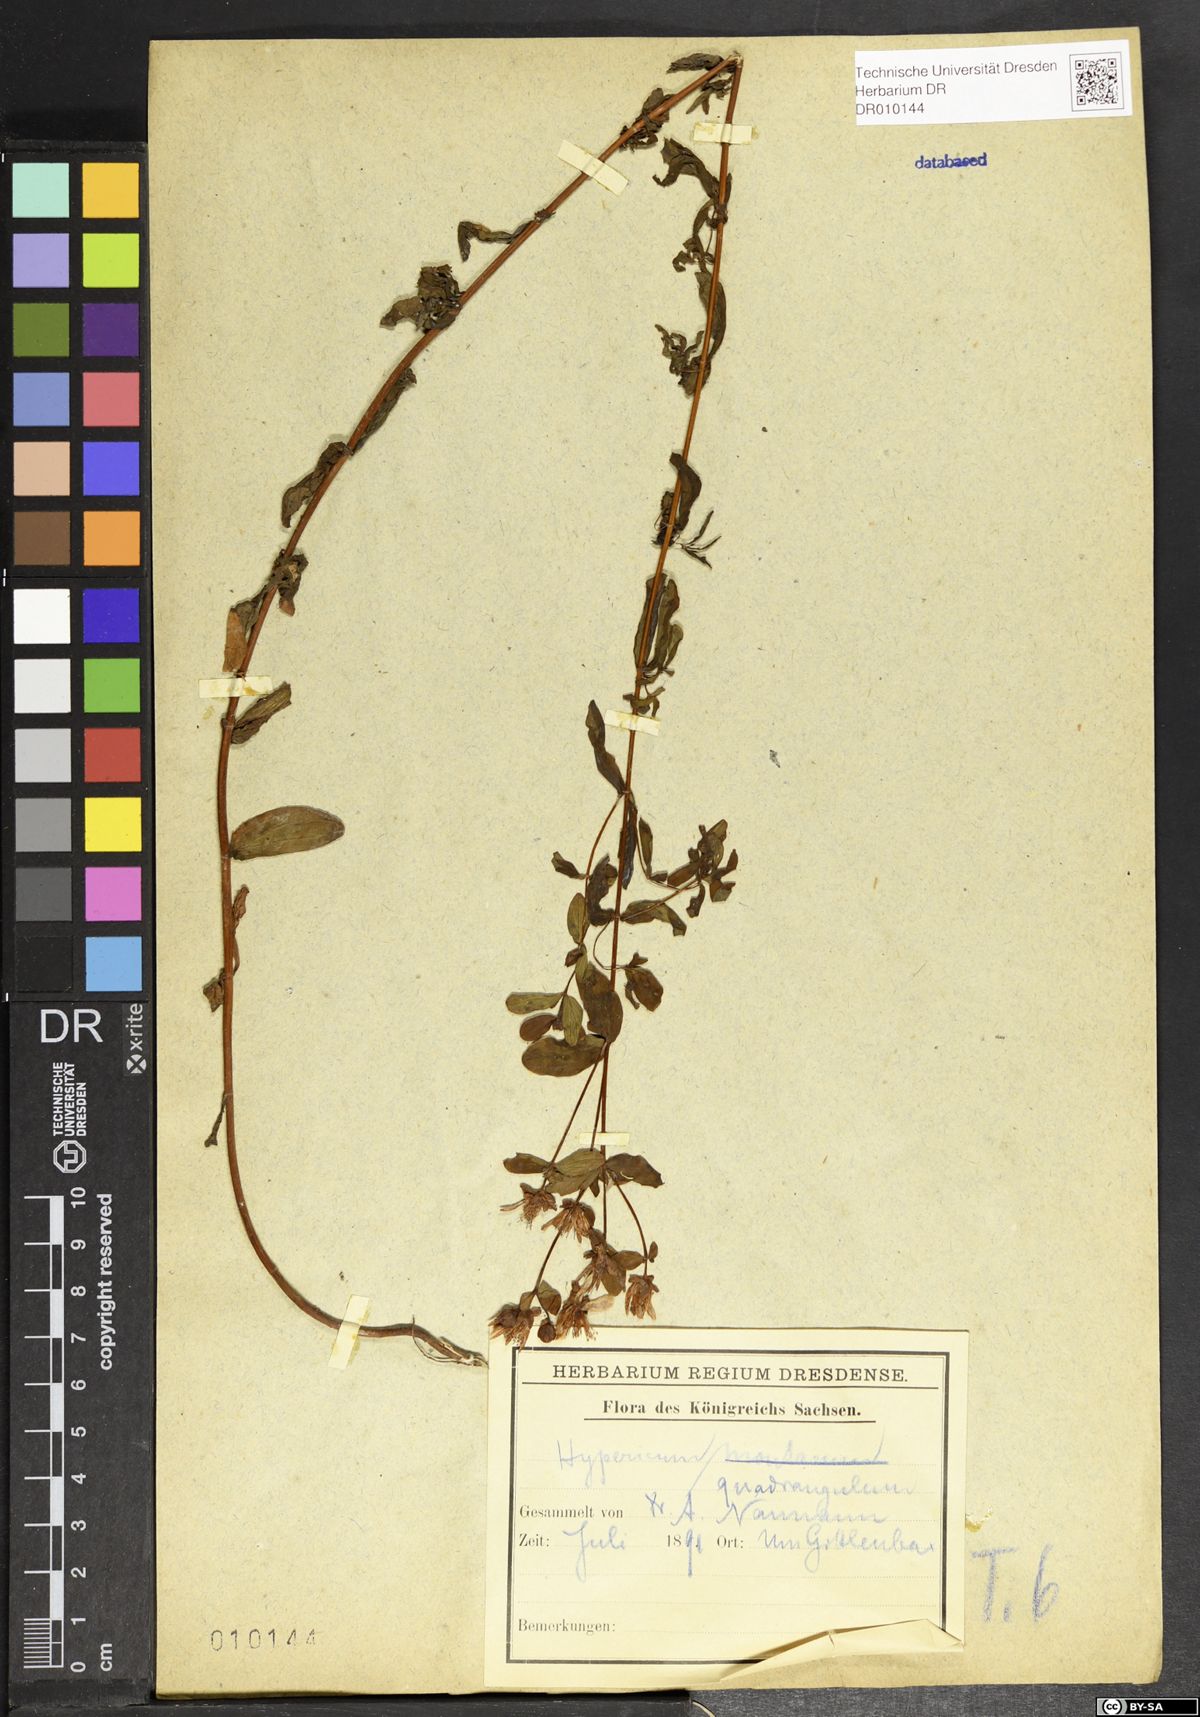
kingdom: Plantae
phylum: Tracheophyta
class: Magnoliopsida
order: Malpighiales
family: Hypericaceae
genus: Hypericum
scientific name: Hypericum maculatum
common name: Imperforate st. john's-wort
